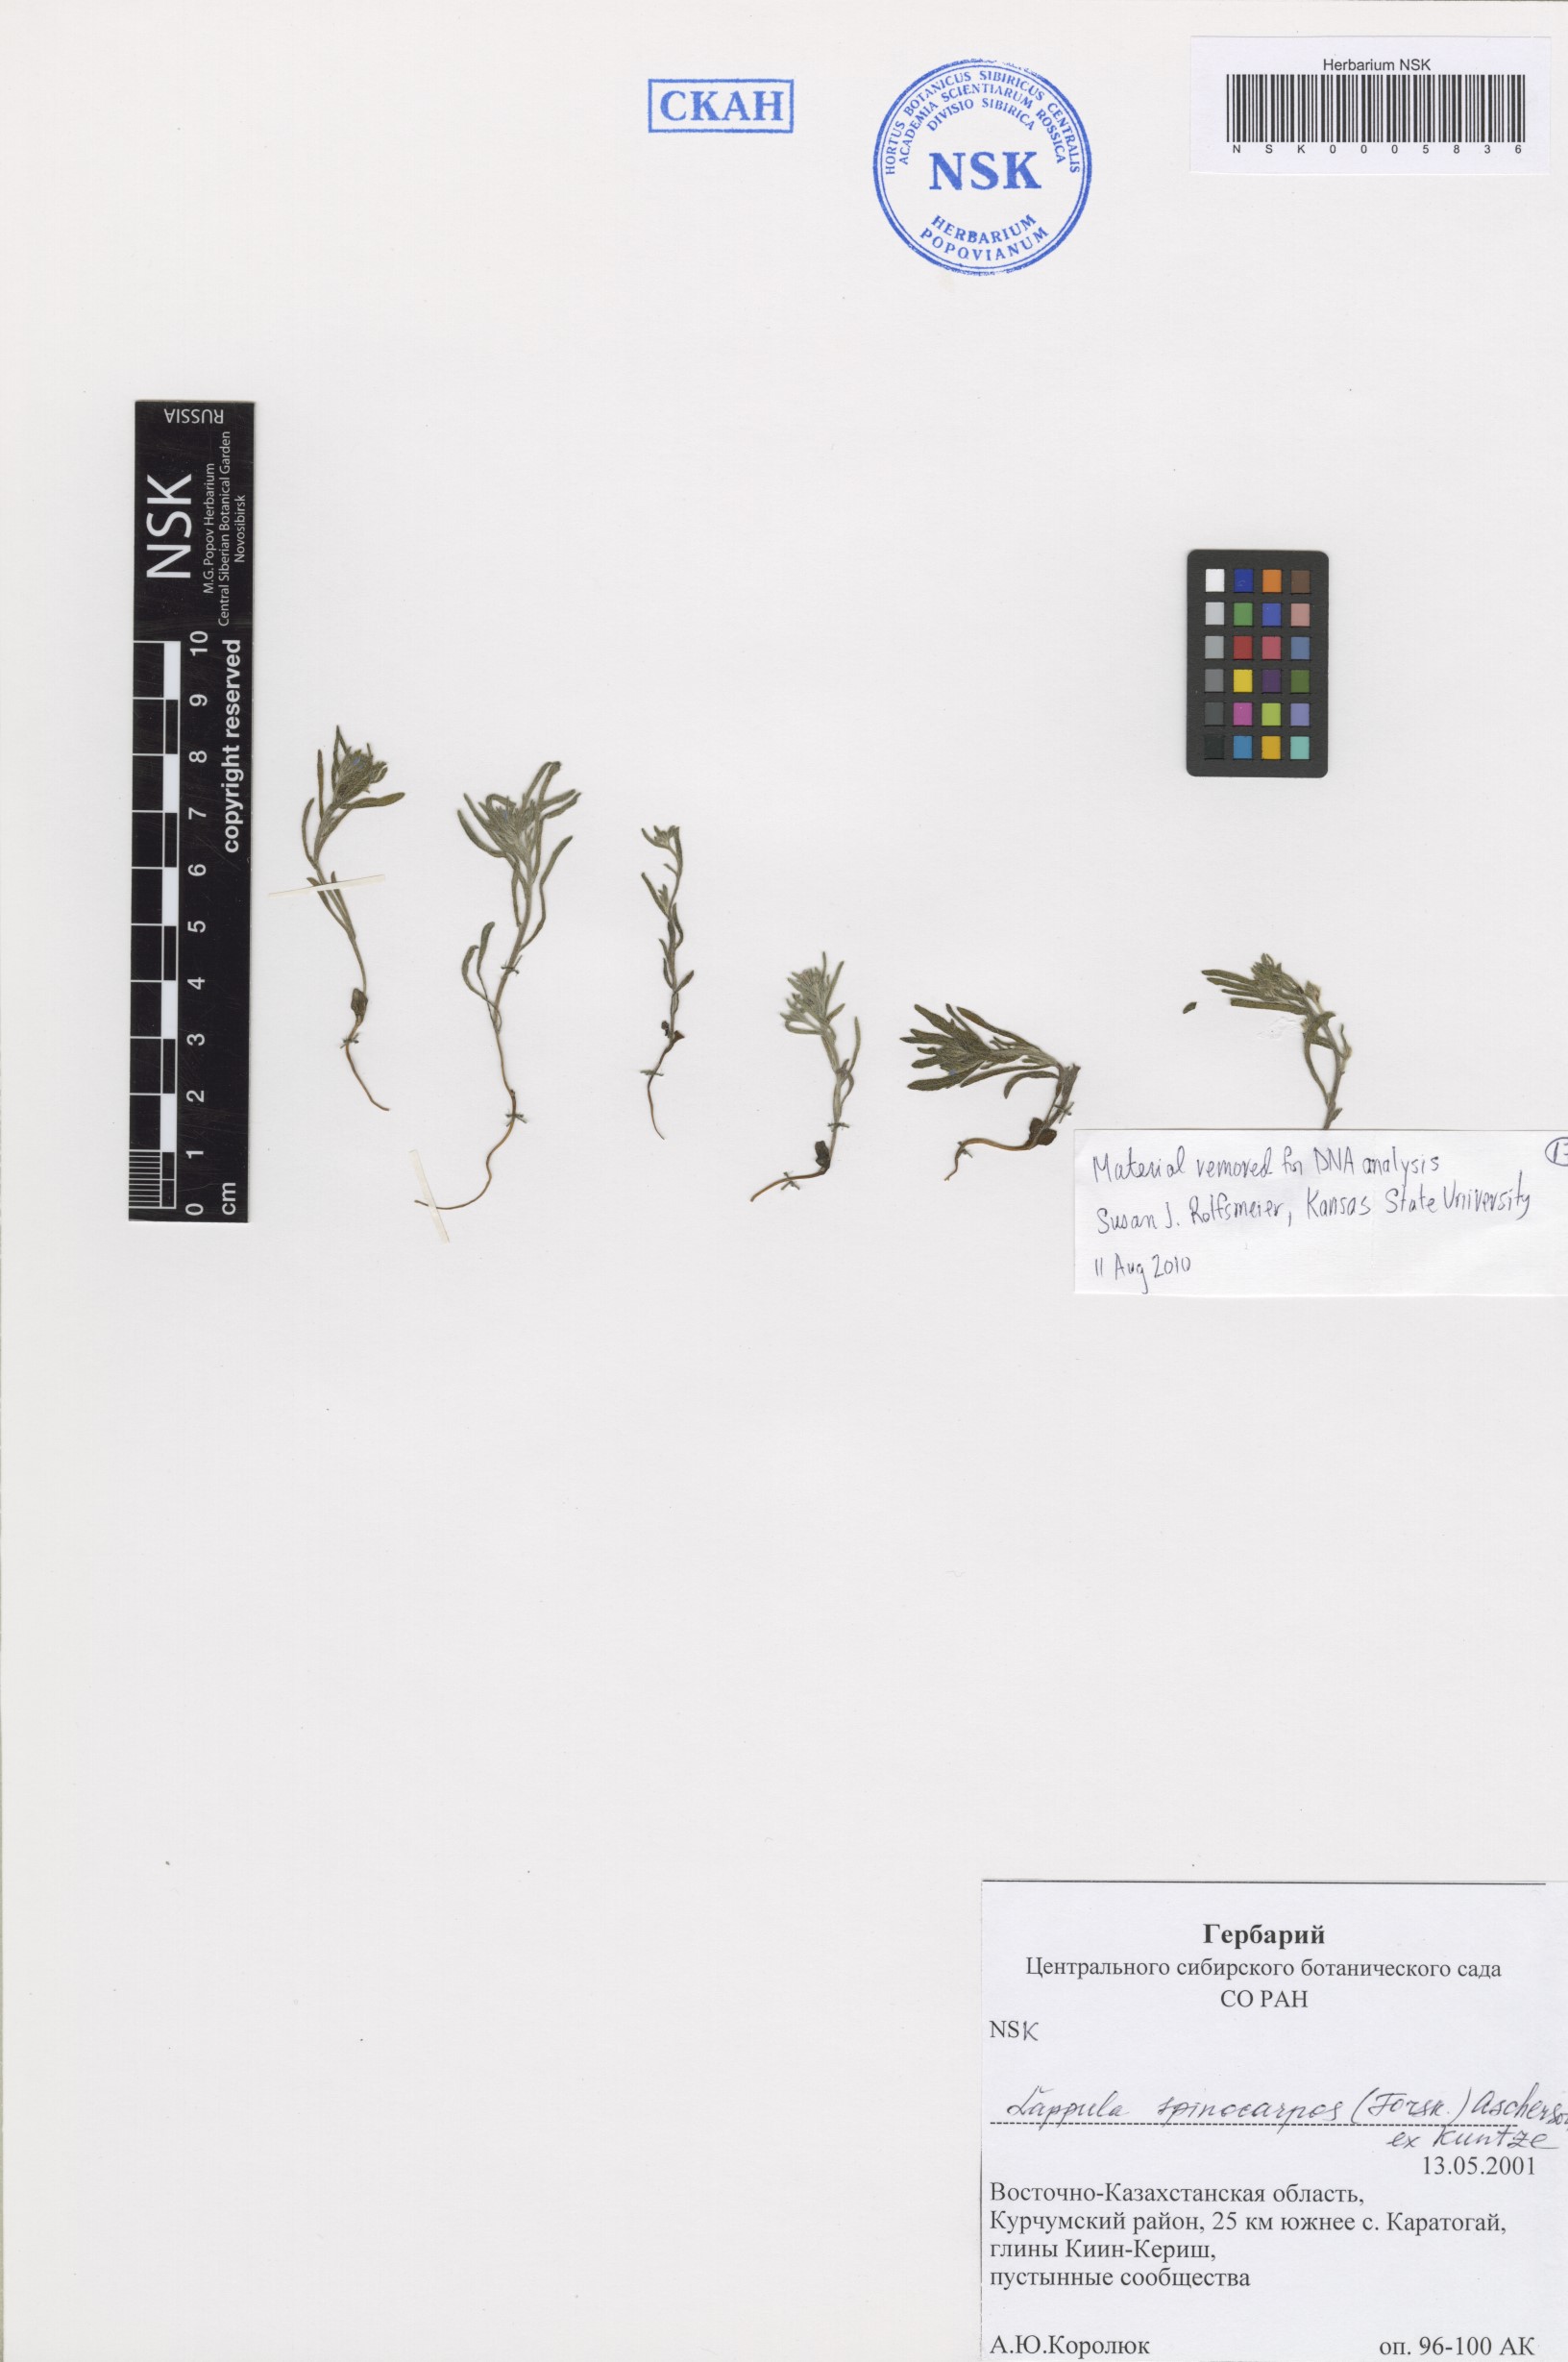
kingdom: Plantae
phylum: Tracheophyta
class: Magnoliopsida
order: Boraginales
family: Boraginaceae
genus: Lappula
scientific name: Lappula spinocarpos
